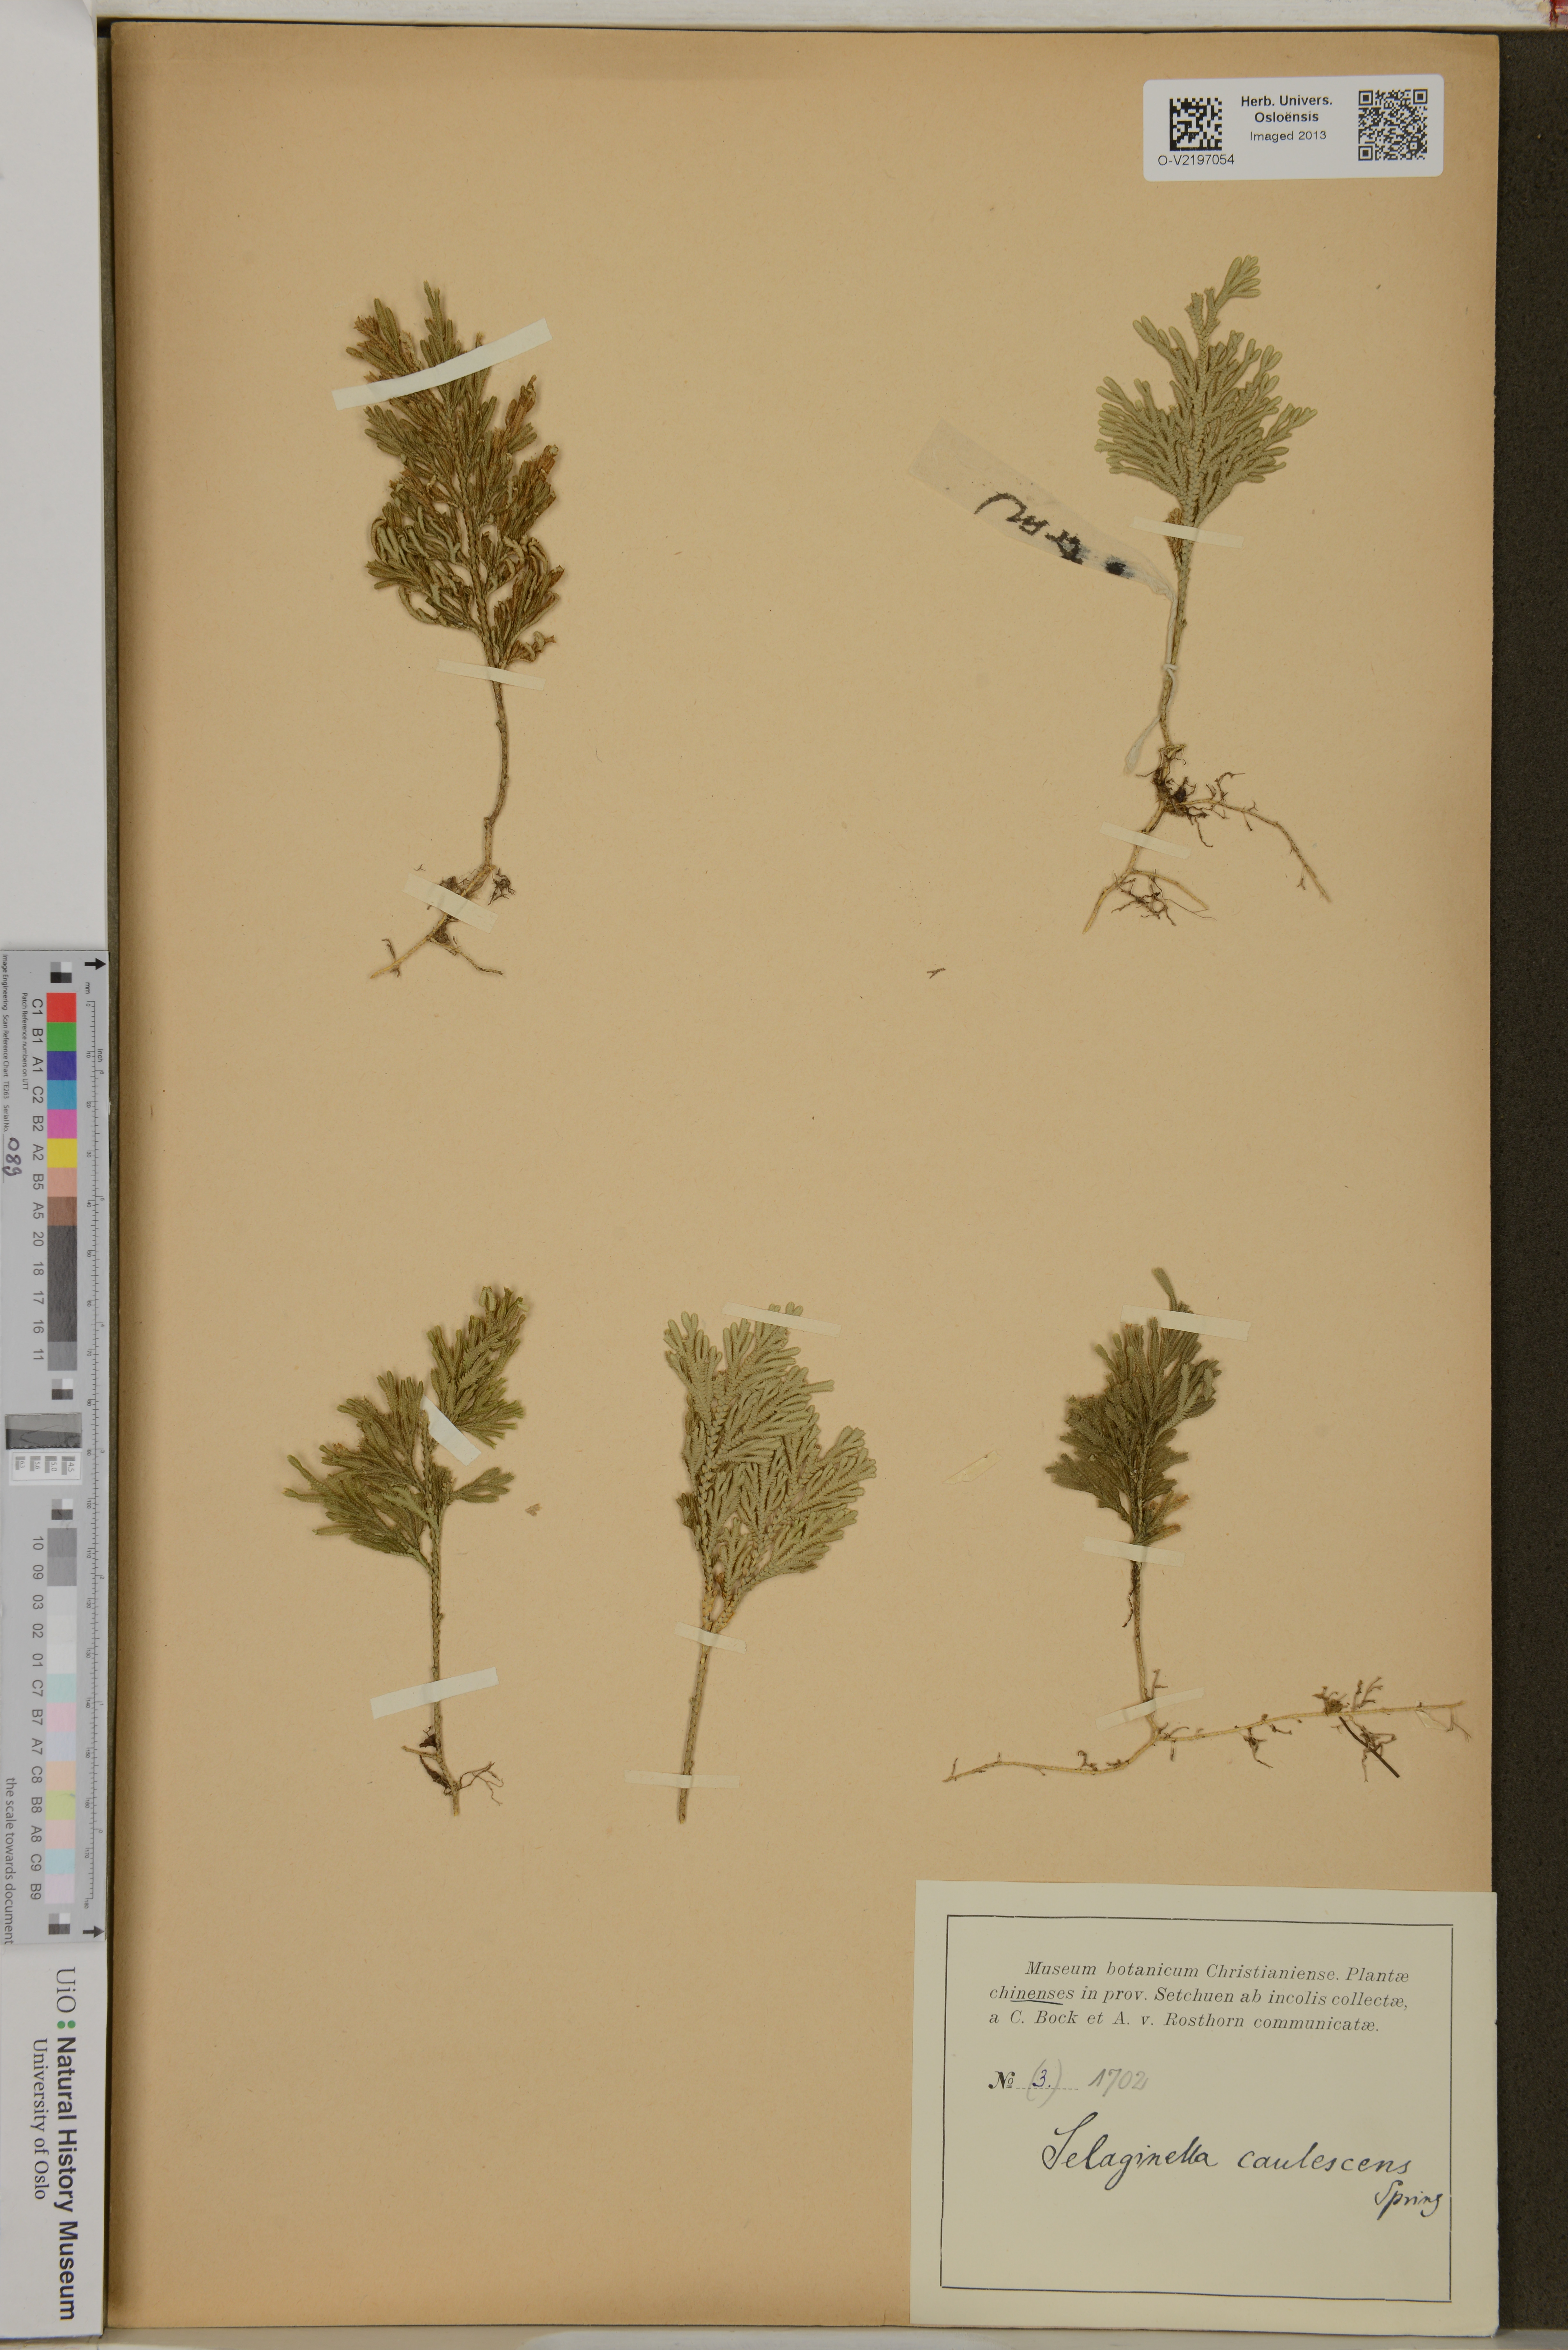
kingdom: Plantae
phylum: Tracheophyta
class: Lycopodiopsida
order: Selaginellales
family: Selaginellaceae
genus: Selaginella
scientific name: Selaginella involvens
